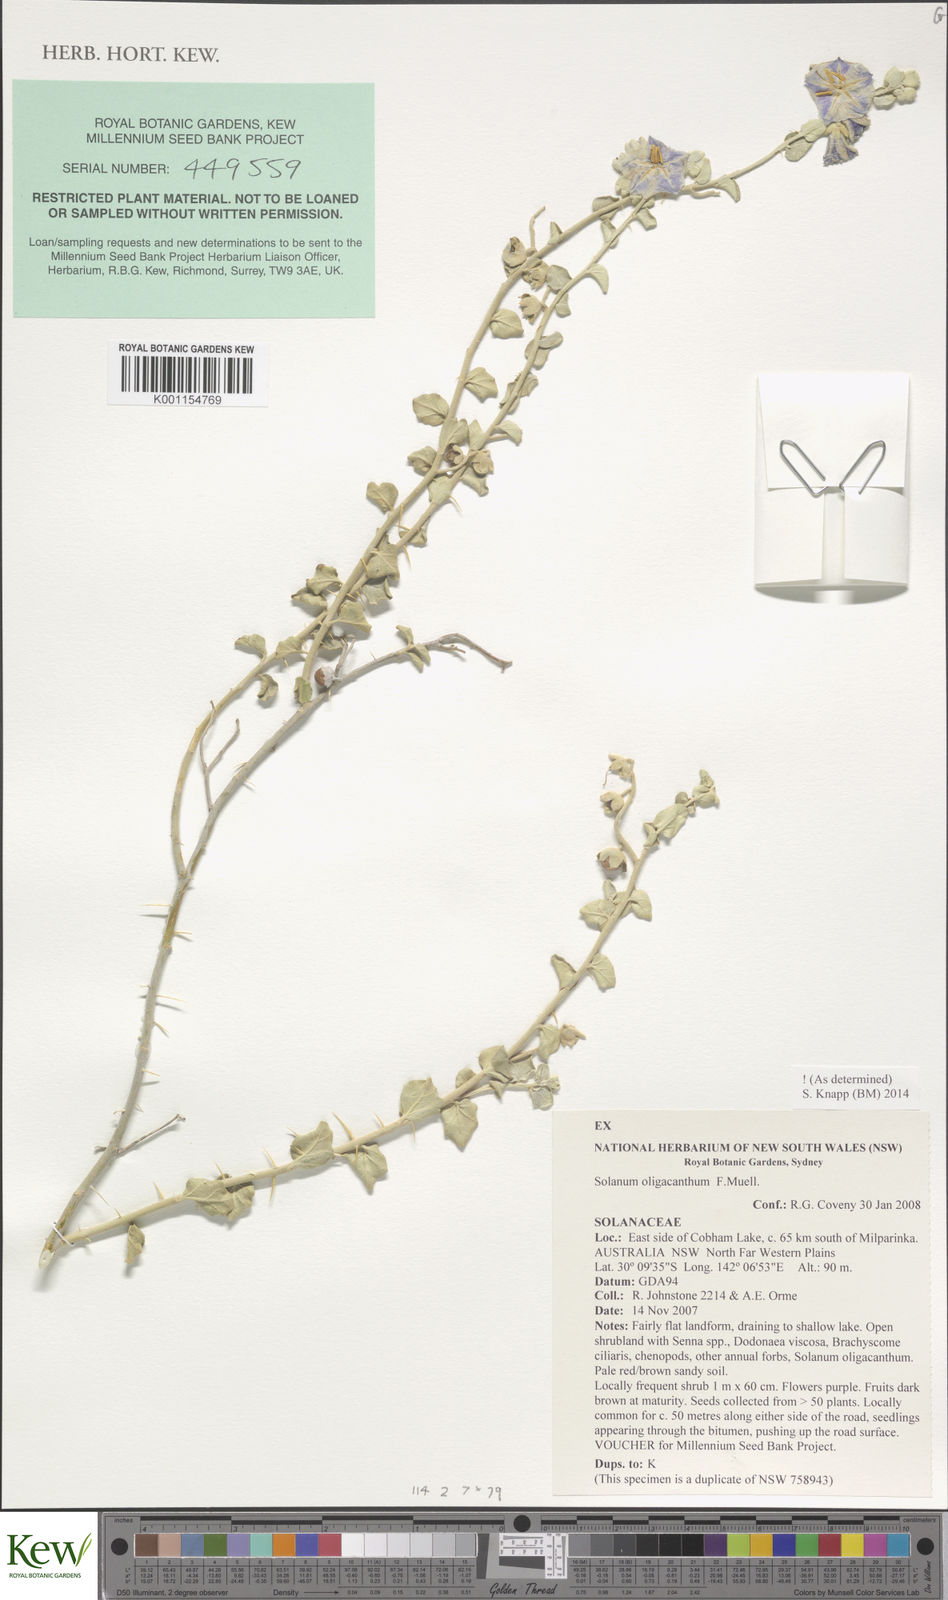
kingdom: Plantae
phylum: Tracheophyta
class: Magnoliopsida
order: Solanales
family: Solanaceae
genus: Solanum
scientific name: Solanum oligacanthum
